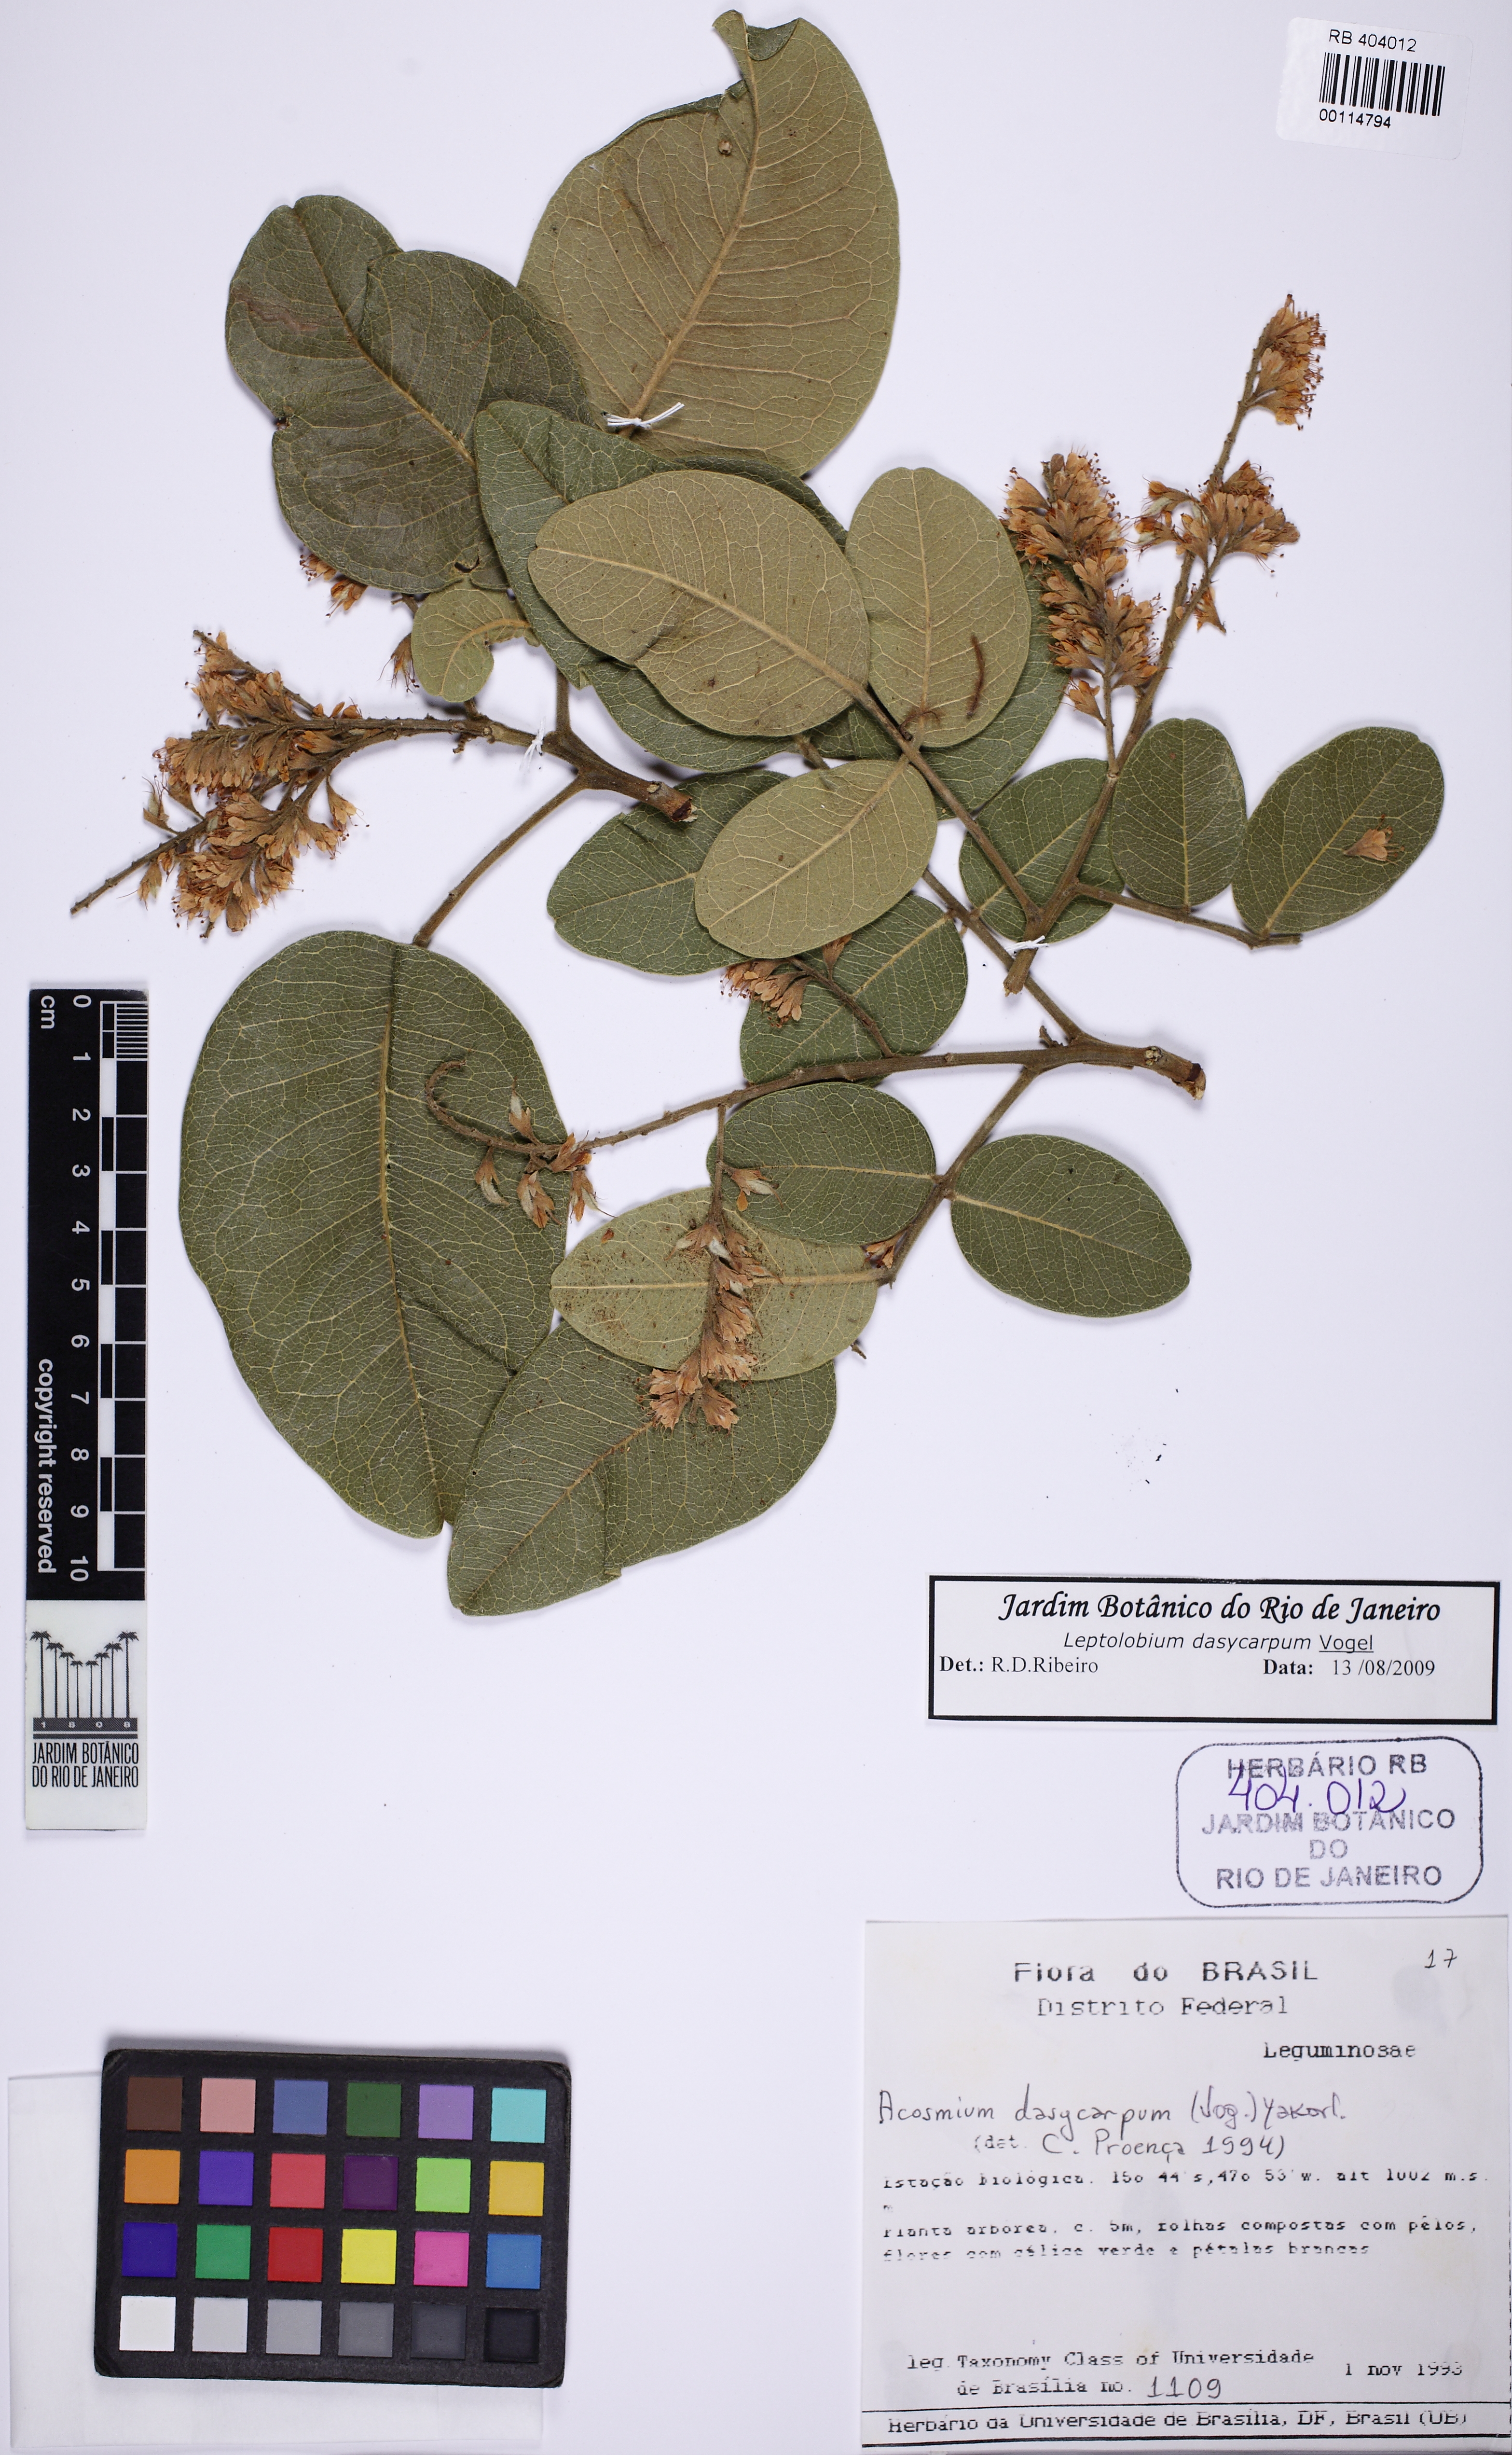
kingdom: Plantae
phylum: Tracheophyta
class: Magnoliopsida
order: Fabales
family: Fabaceae
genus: Leptolobium
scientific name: Leptolobium dasycarpum
